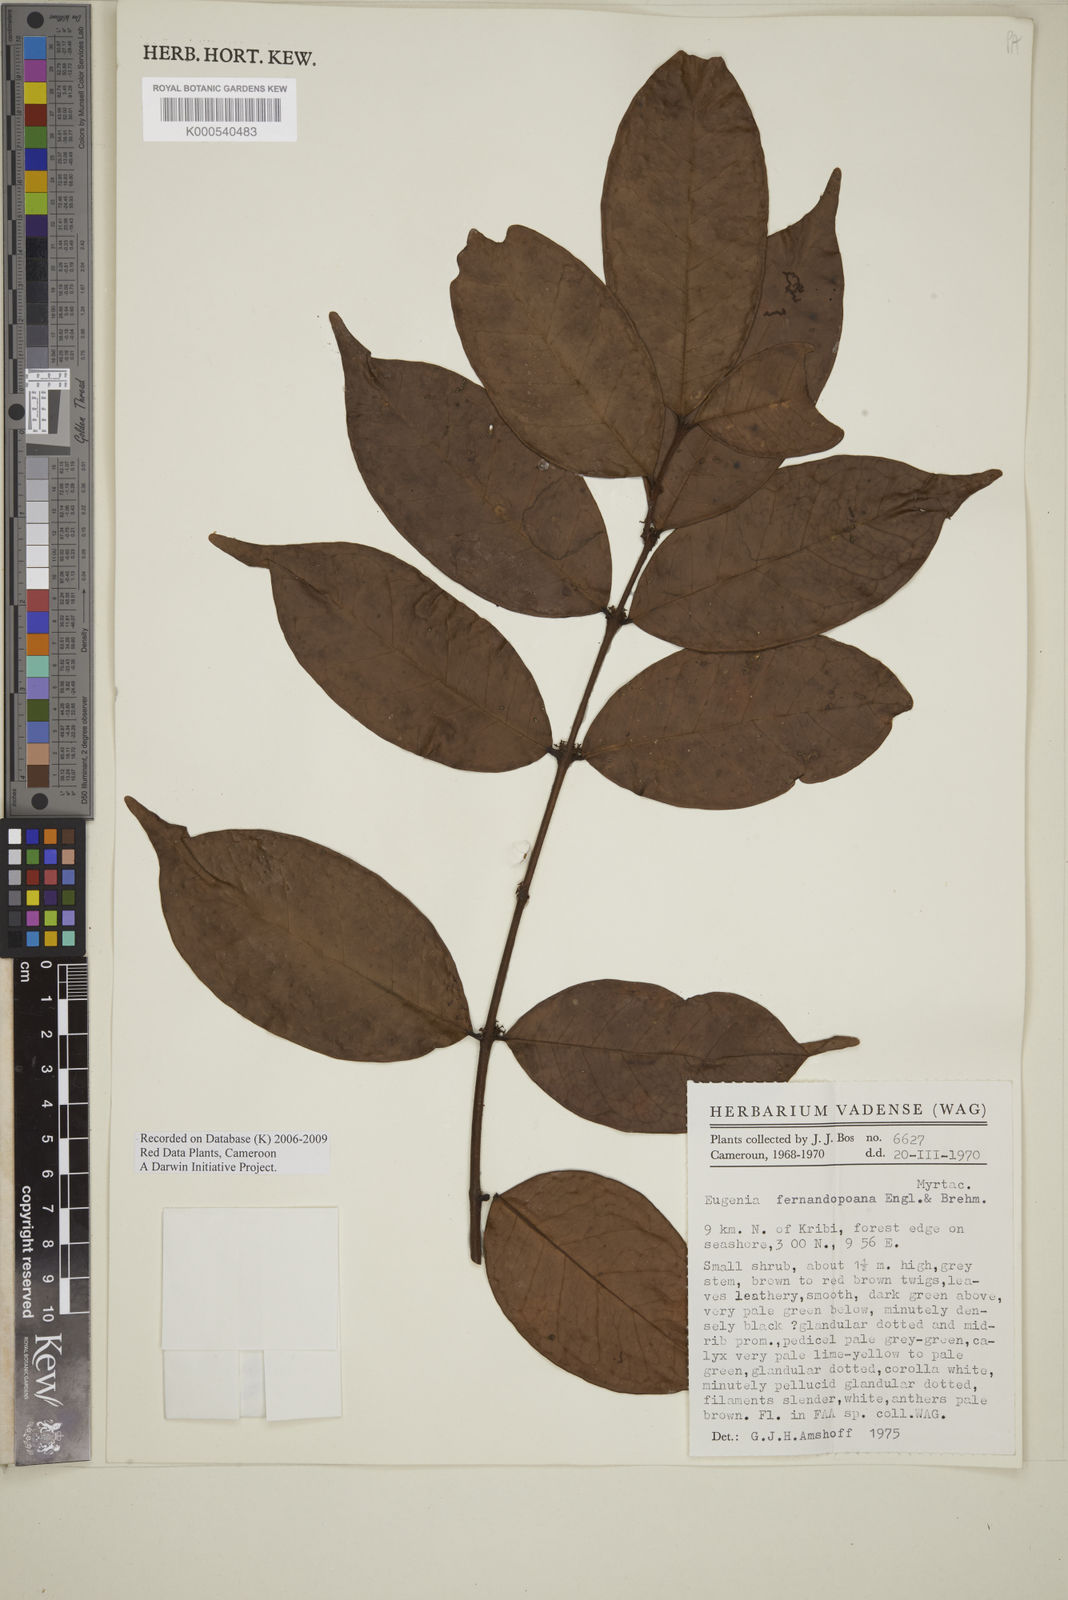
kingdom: Plantae
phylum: Tracheophyta
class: Magnoliopsida
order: Myrtales
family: Myrtaceae
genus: Eugenia
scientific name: Eugenia fernandopoana
